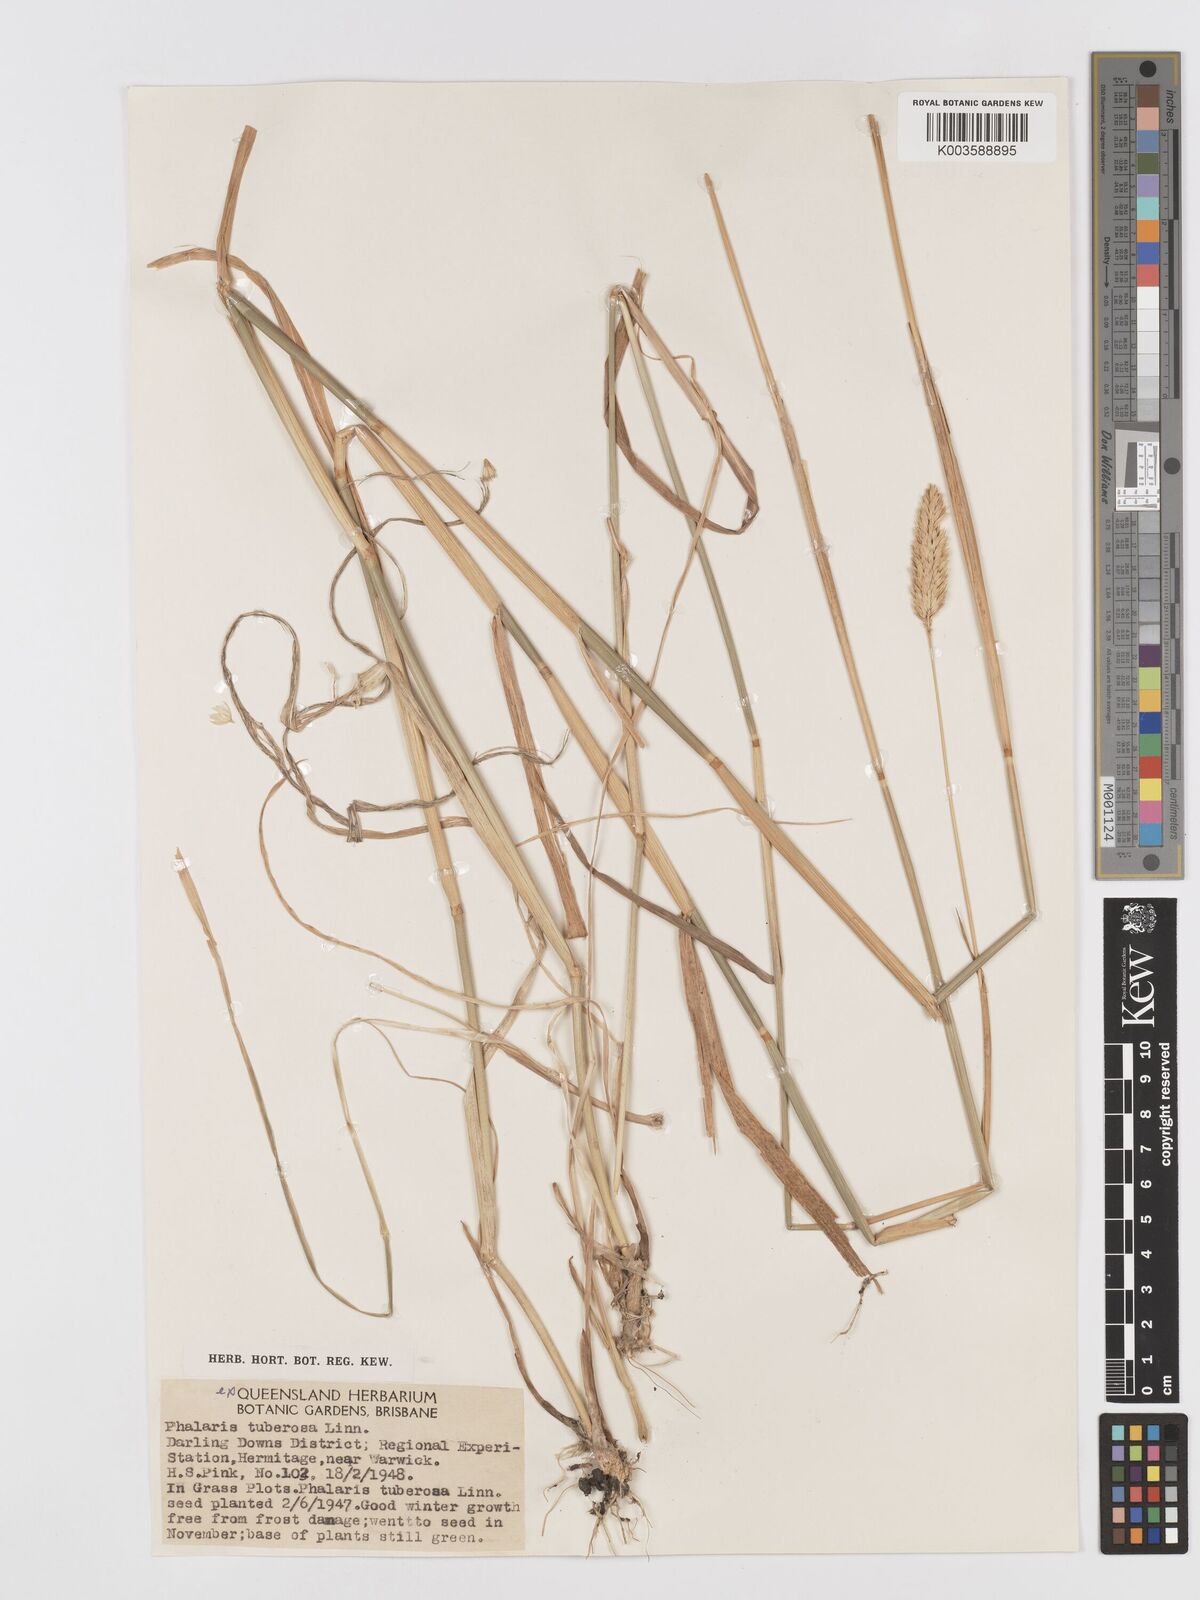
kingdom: Plantae
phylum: Tracheophyta
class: Liliopsida
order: Poales
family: Poaceae
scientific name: Poaceae
